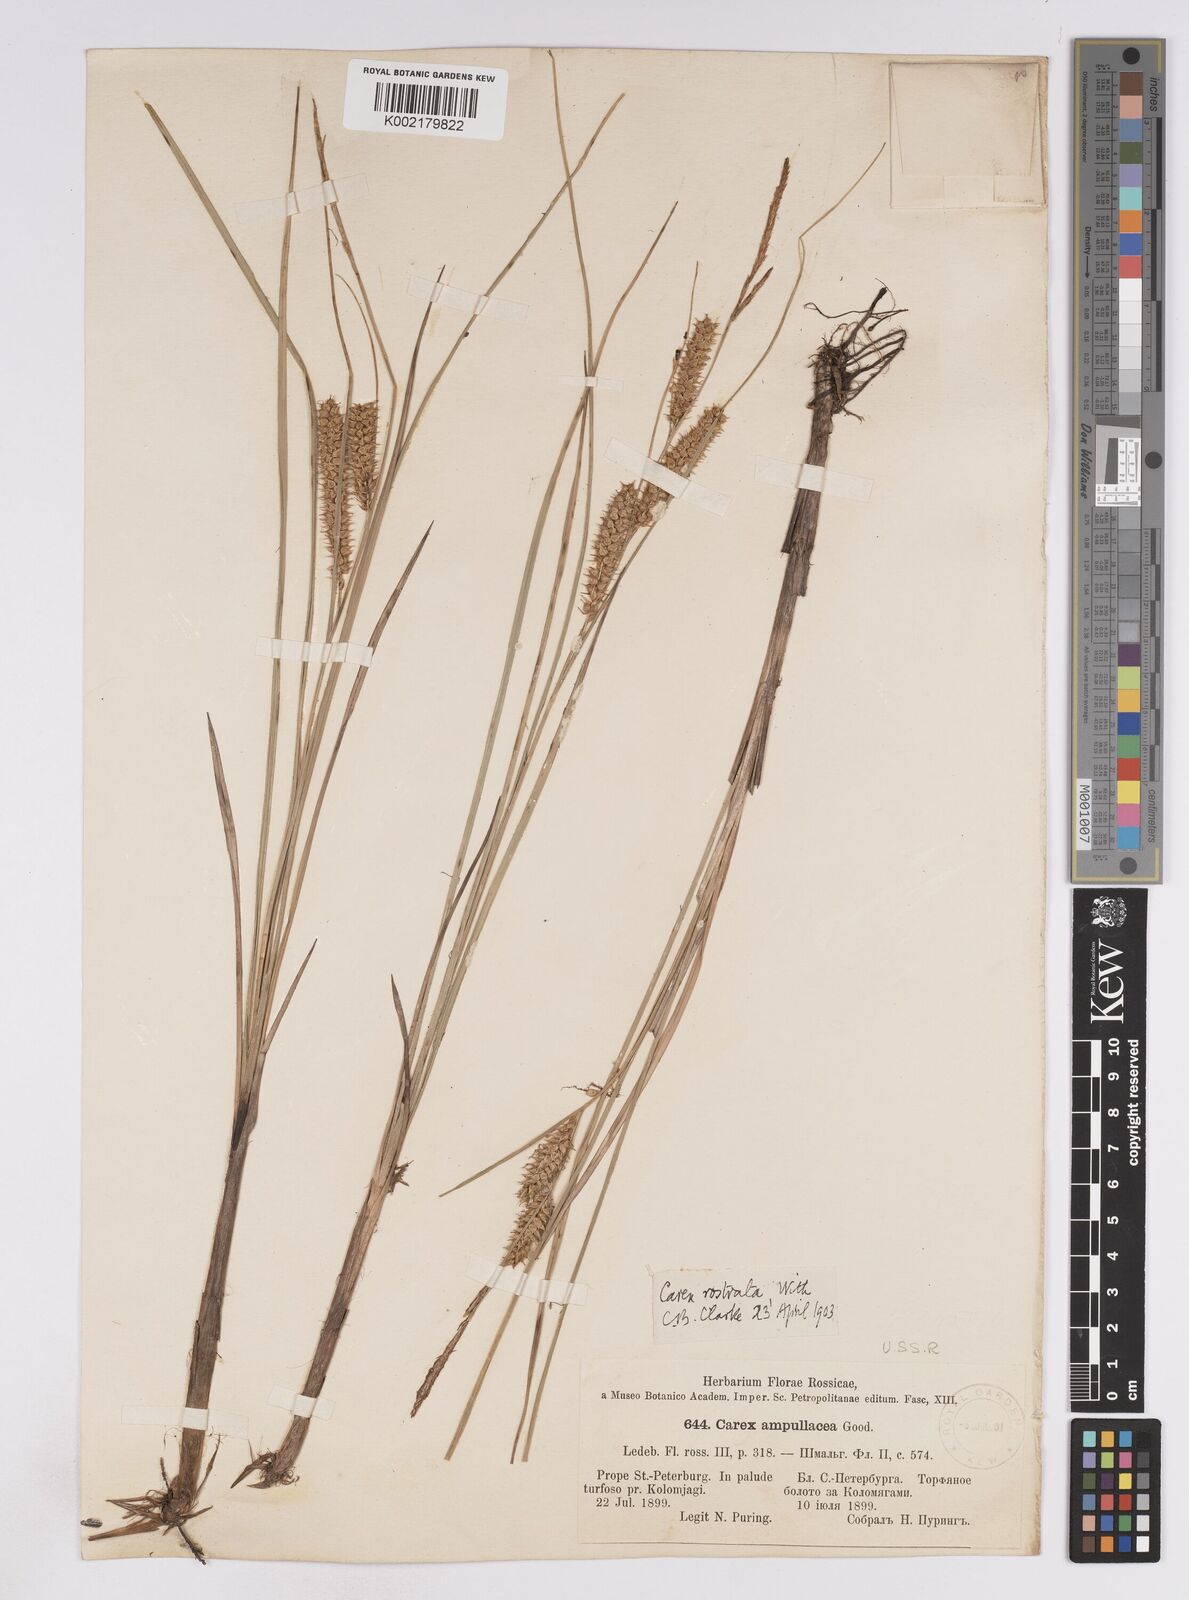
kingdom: Plantae
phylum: Tracheophyta
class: Liliopsida
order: Poales
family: Cyperaceae
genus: Carex
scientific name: Carex rostrata
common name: Bottle sedge
